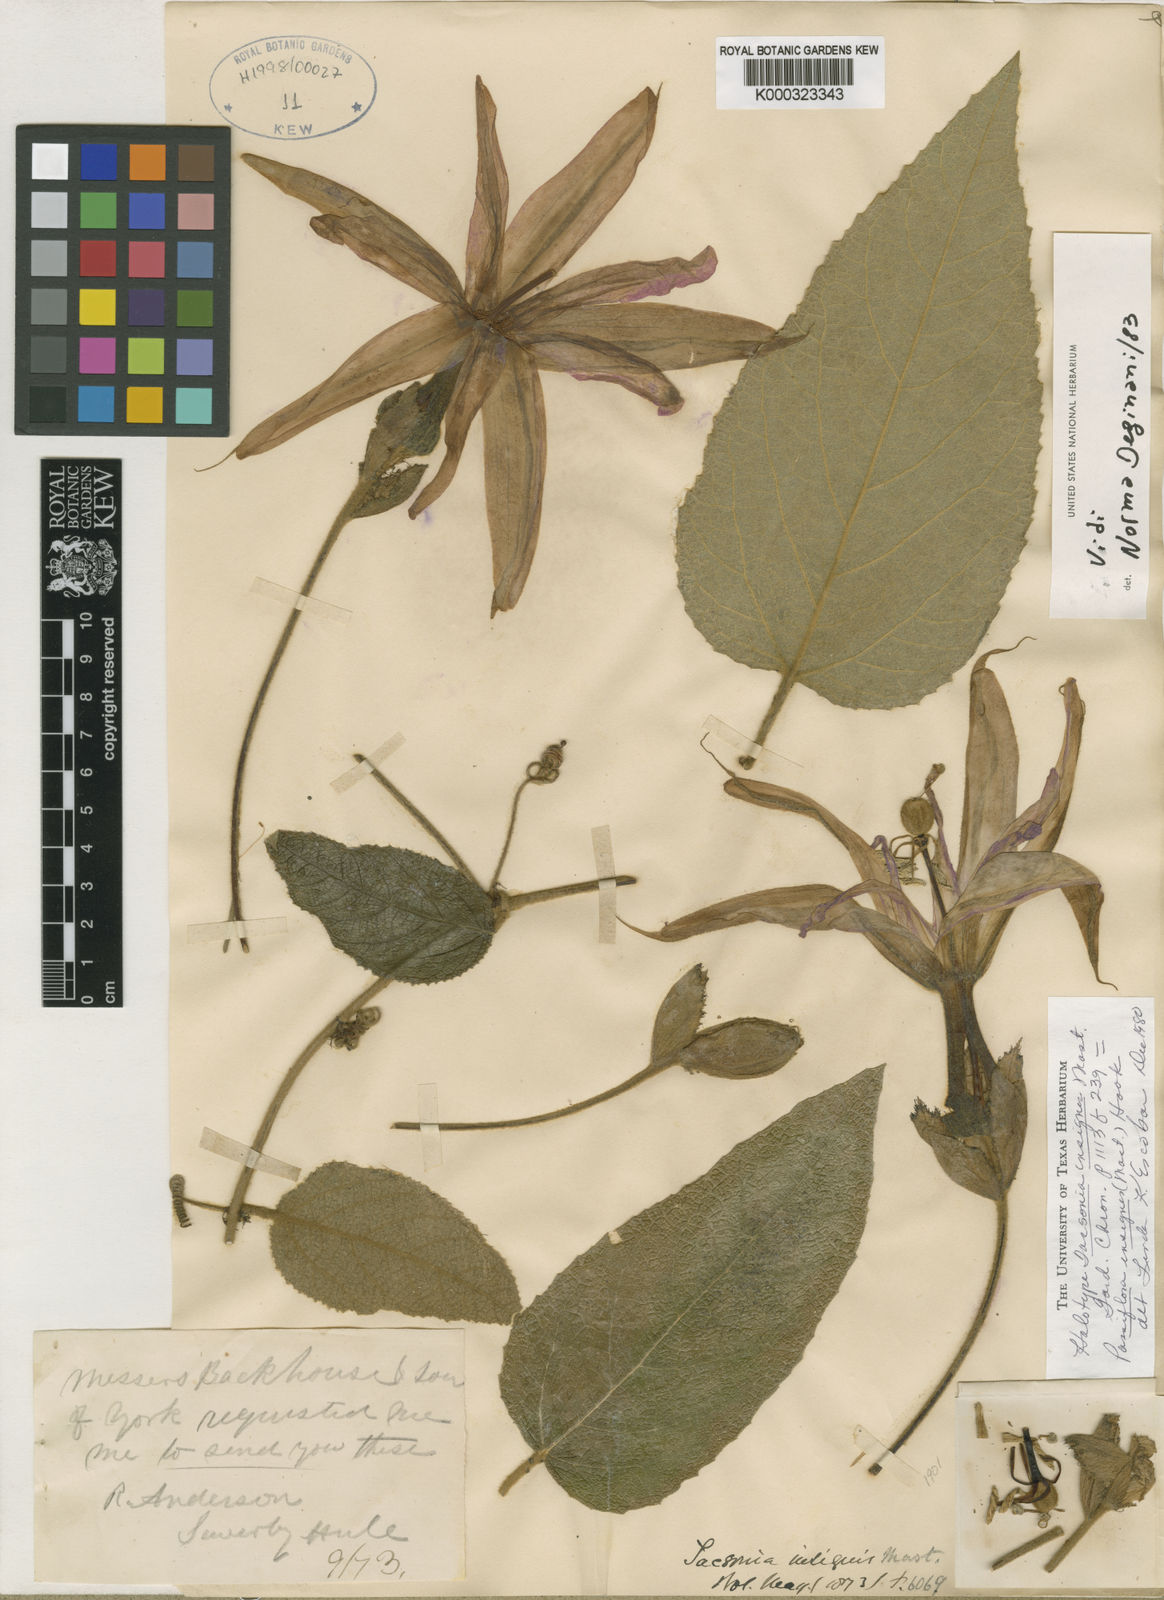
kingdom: Plantae
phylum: Tracheophyta
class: Magnoliopsida
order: Malpighiales
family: Passifloraceae
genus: Passiflora
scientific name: Passiflora insignis
